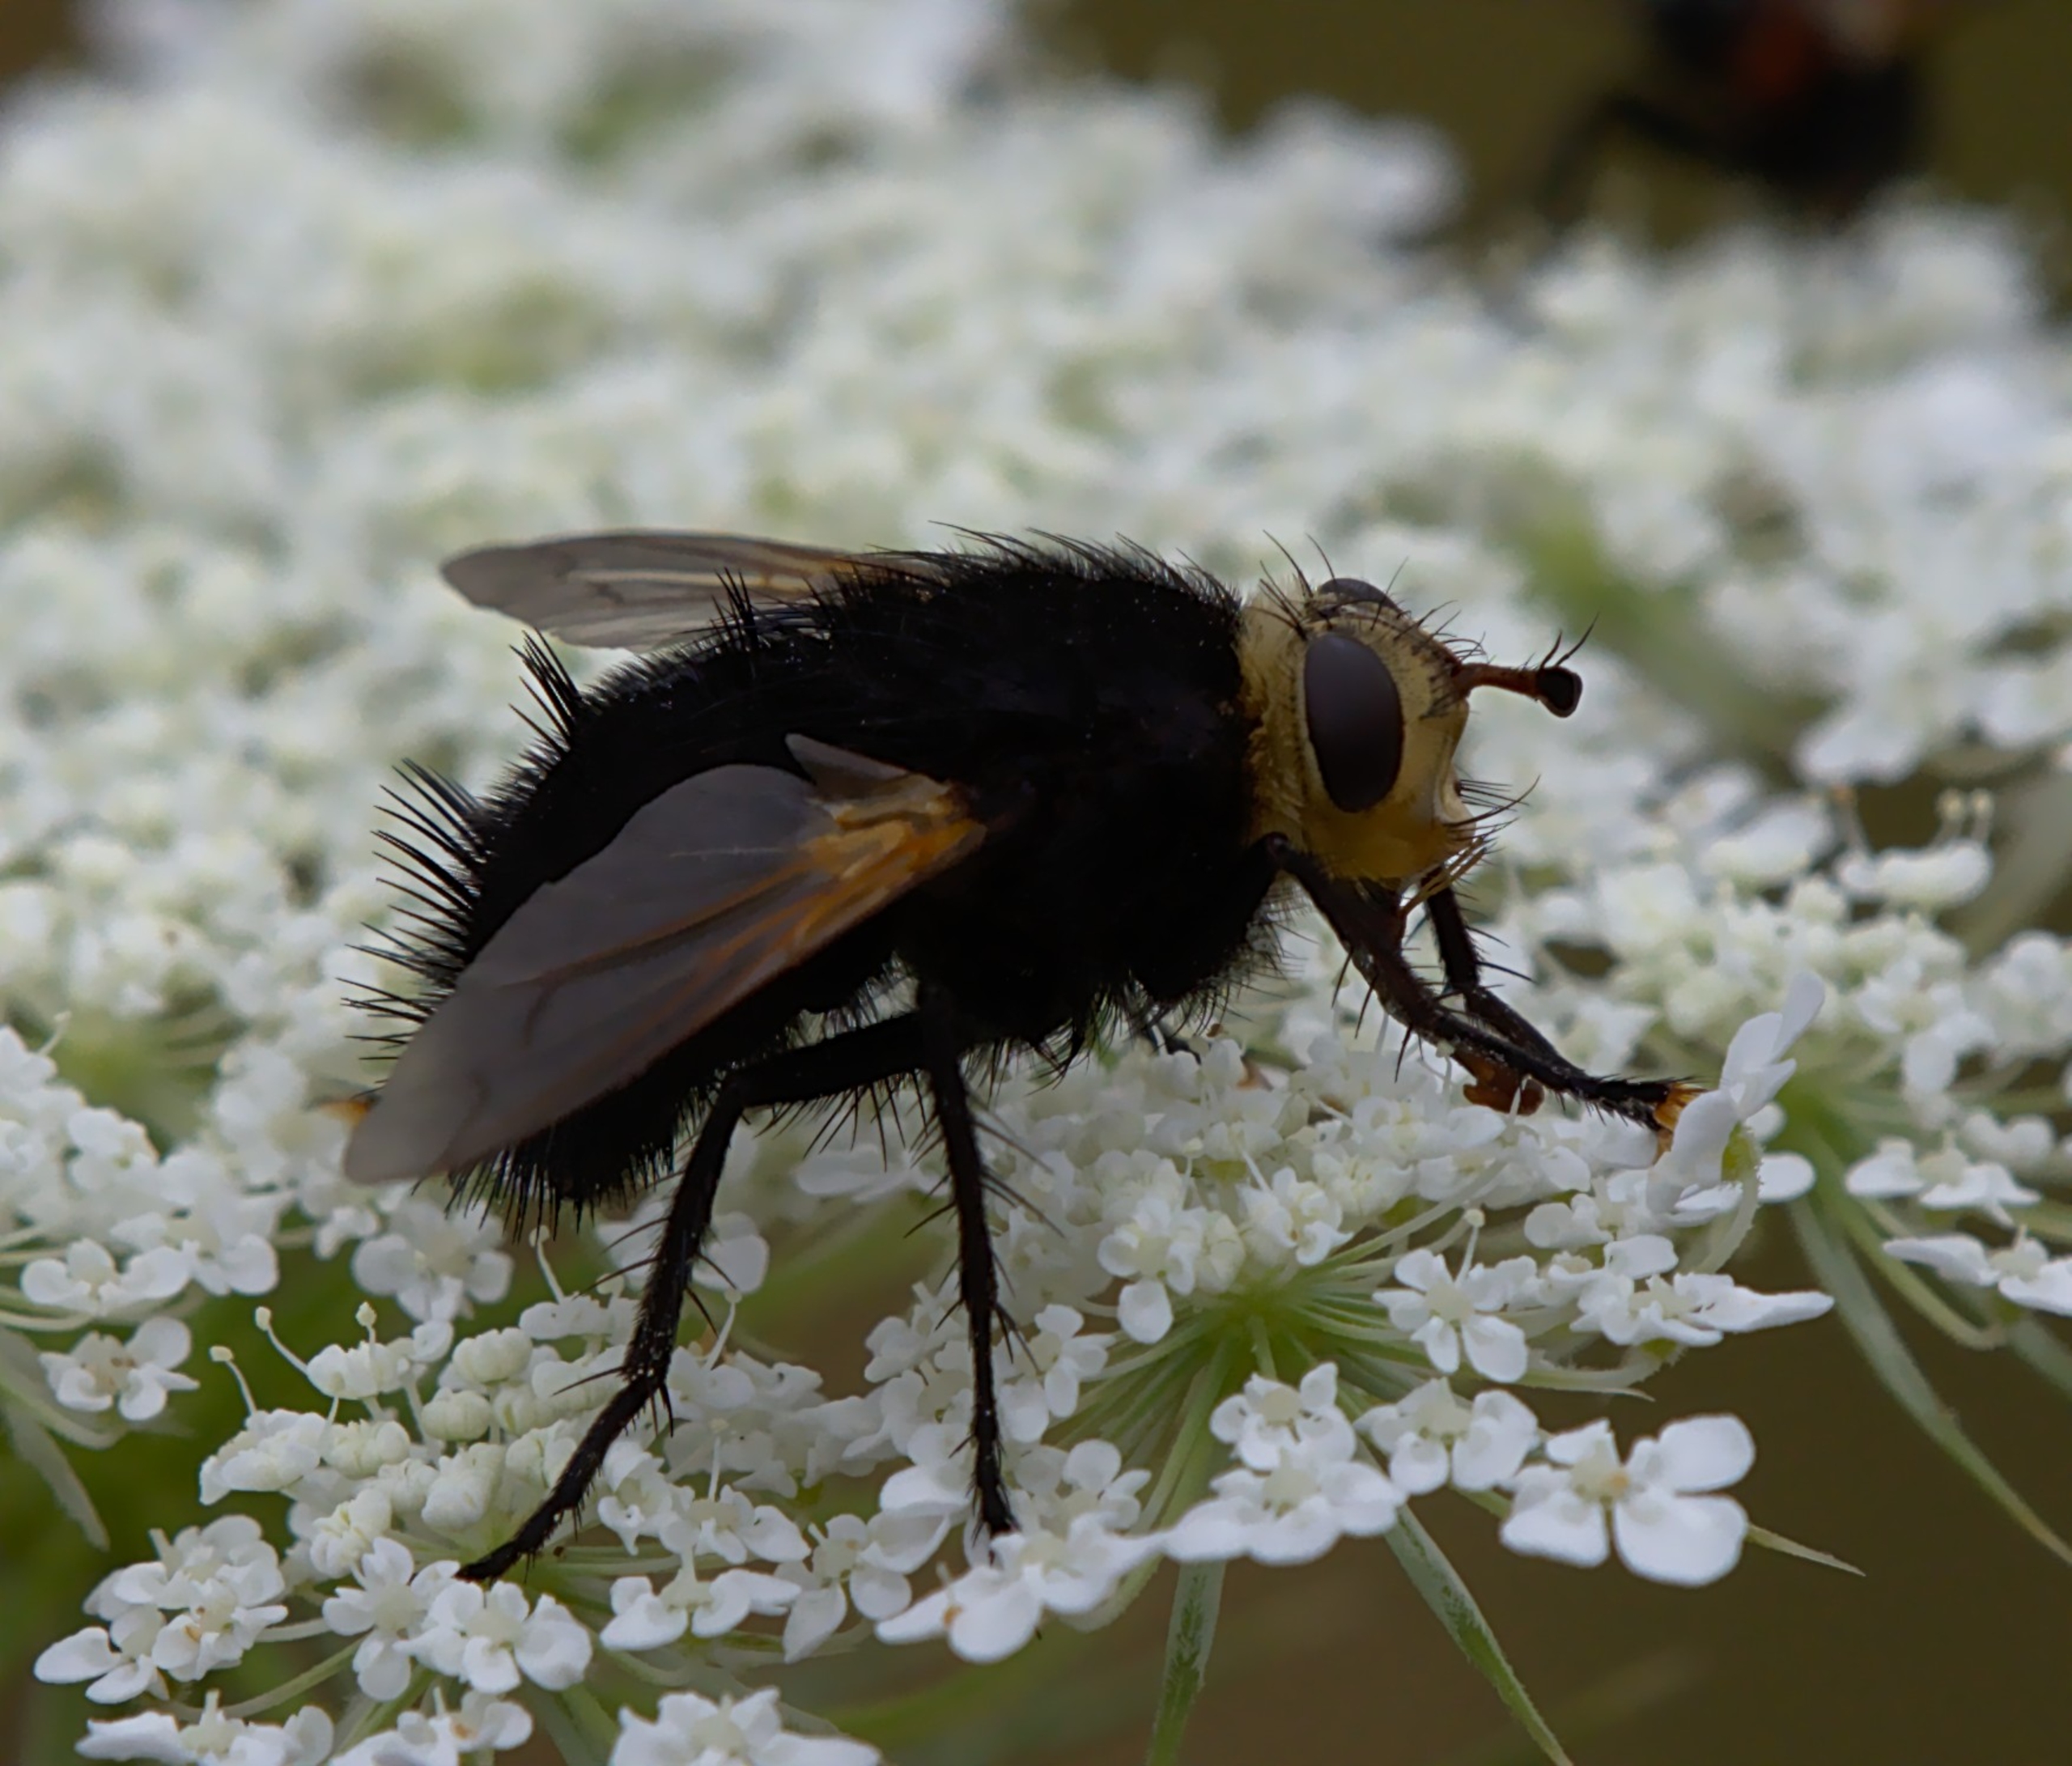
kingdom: Animalia
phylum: Arthropoda
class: Insecta
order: Diptera
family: Tachinidae
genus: Tachina
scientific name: Tachina grossa
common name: Kæmpefluen Harald
